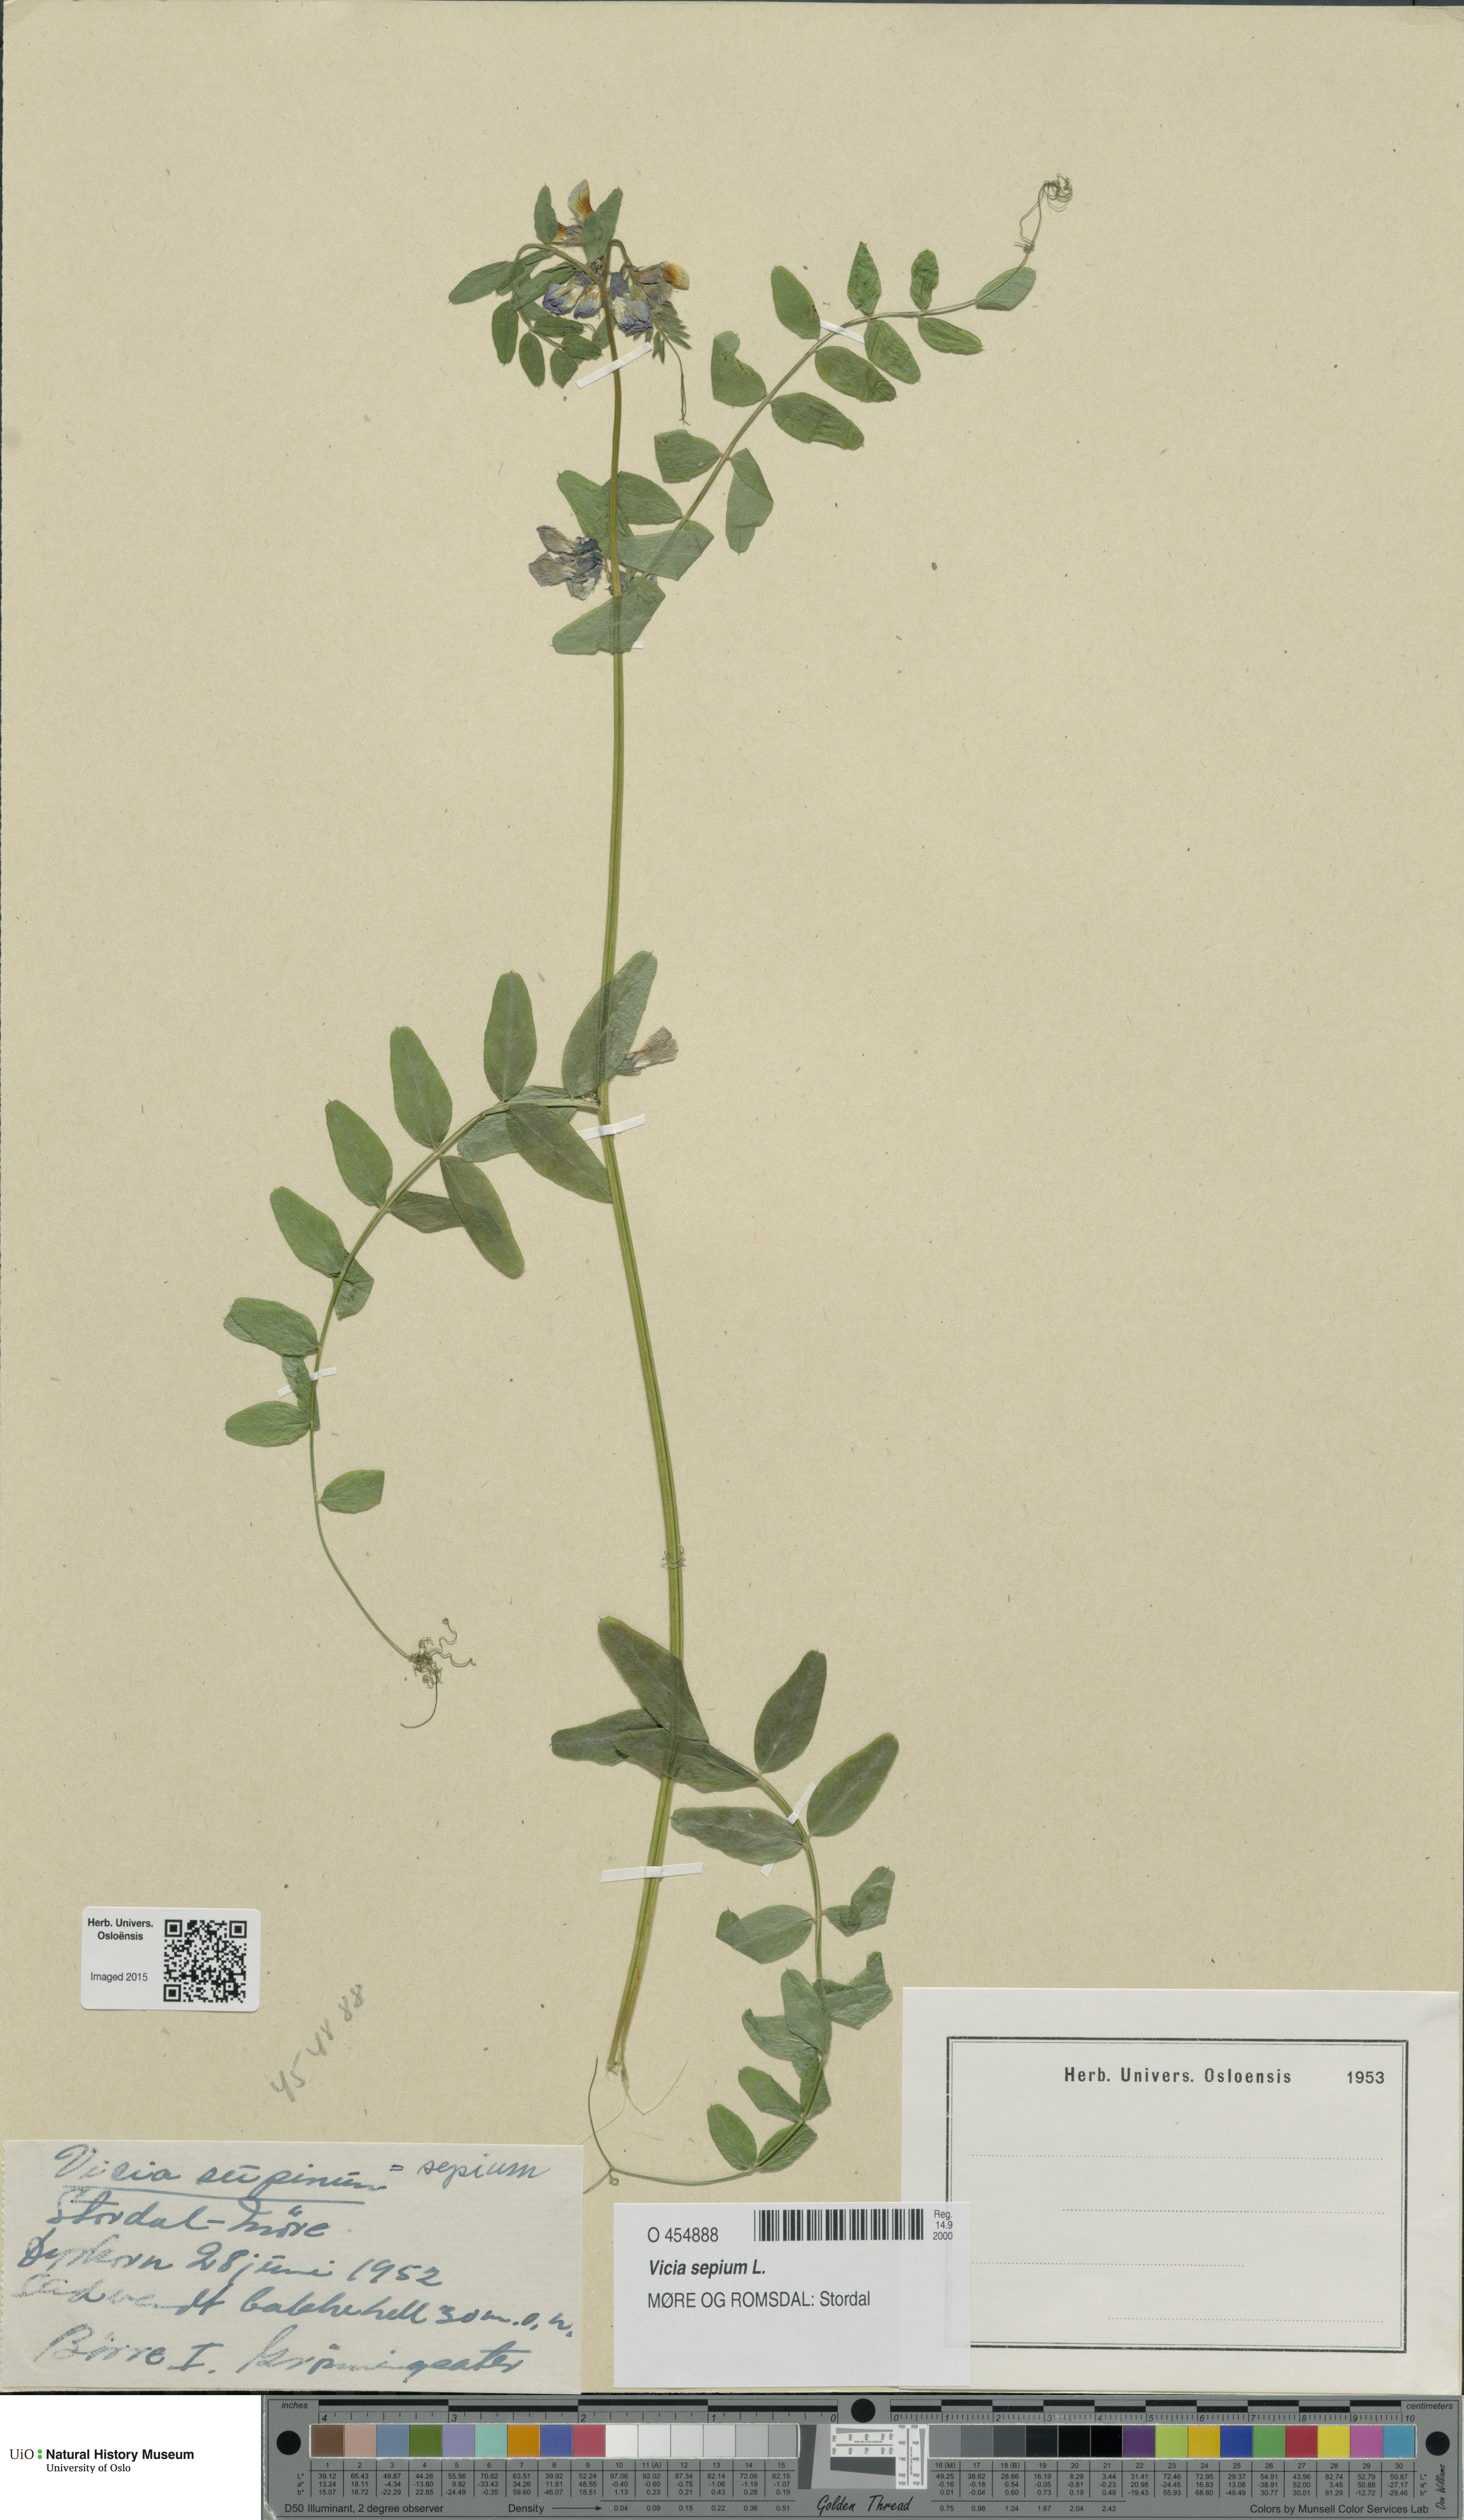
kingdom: Plantae
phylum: Tracheophyta
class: Magnoliopsida
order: Fabales
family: Fabaceae
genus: Vicia
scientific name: Vicia sepium
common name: Bush vetch
